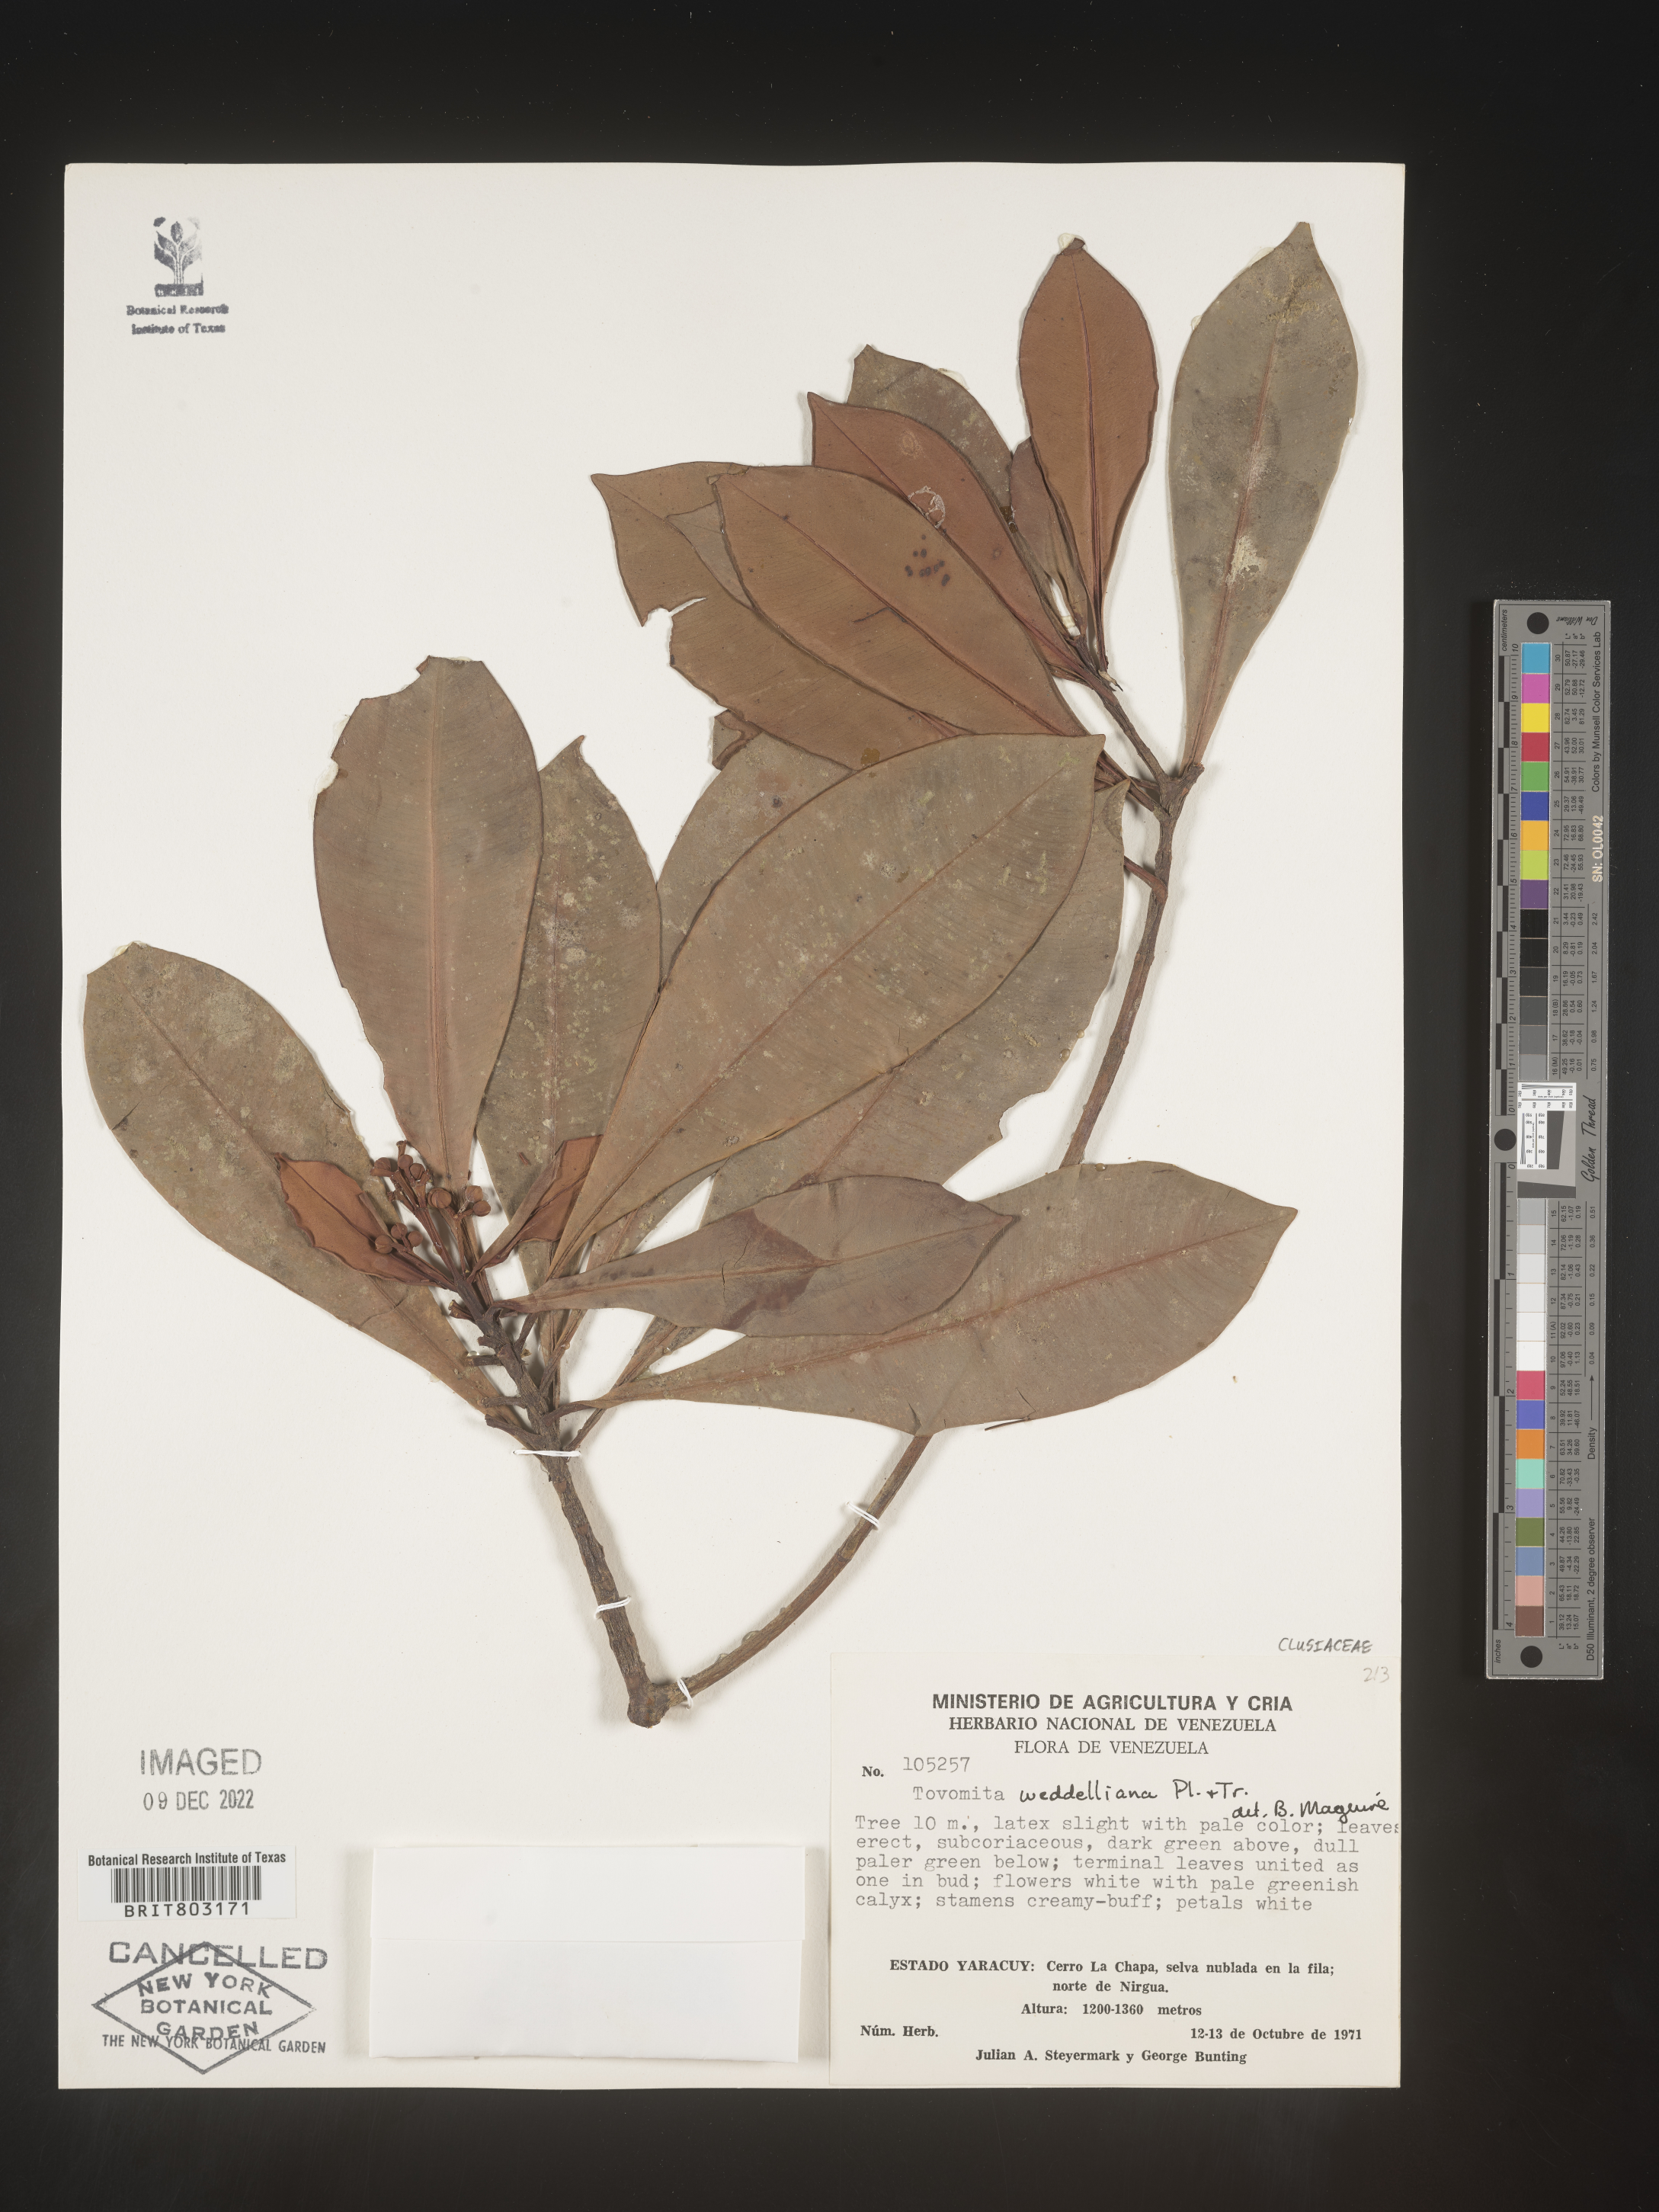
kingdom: Plantae
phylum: Tracheophyta
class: Magnoliopsida
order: Malpighiales
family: Clusiaceae
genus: Arawakia
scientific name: Arawakia weddelliana
